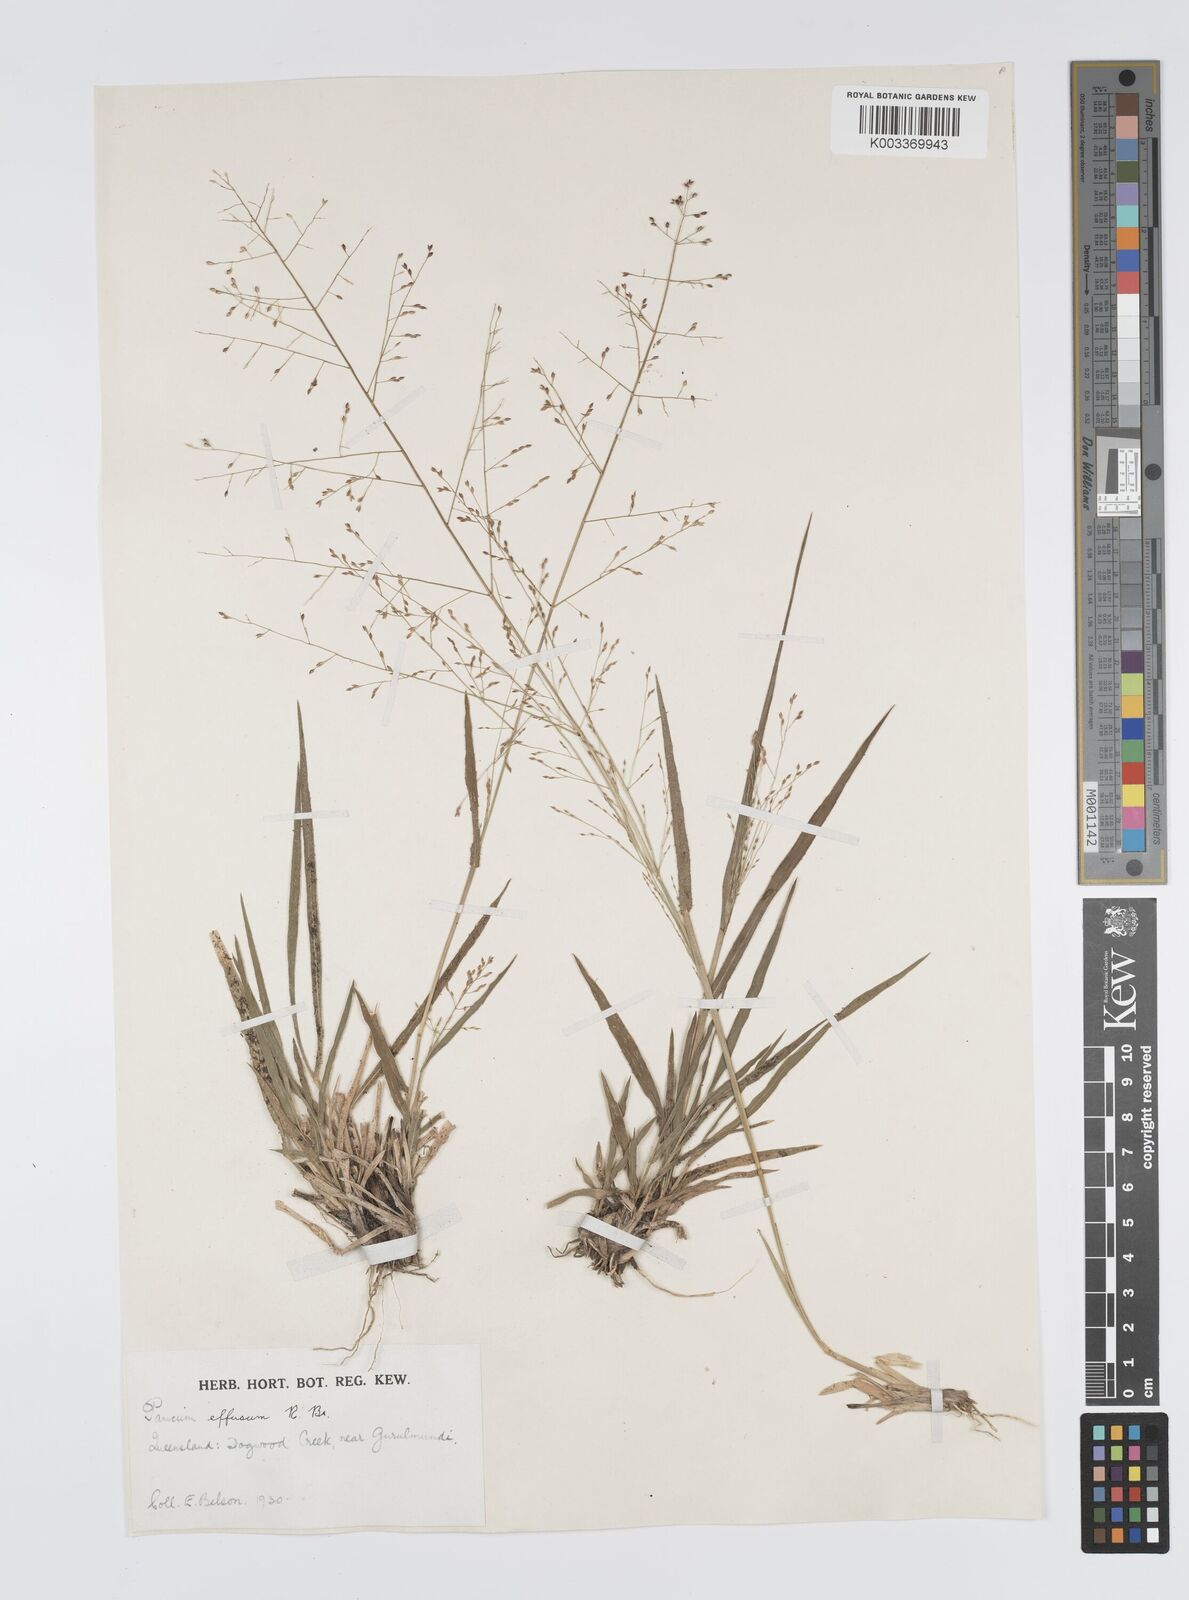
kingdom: Plantae
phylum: Tracheophyta
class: Liliopsida
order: Poales
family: Poaceae
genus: Panicum
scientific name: Panicum effusum
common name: Hairy panic grass
